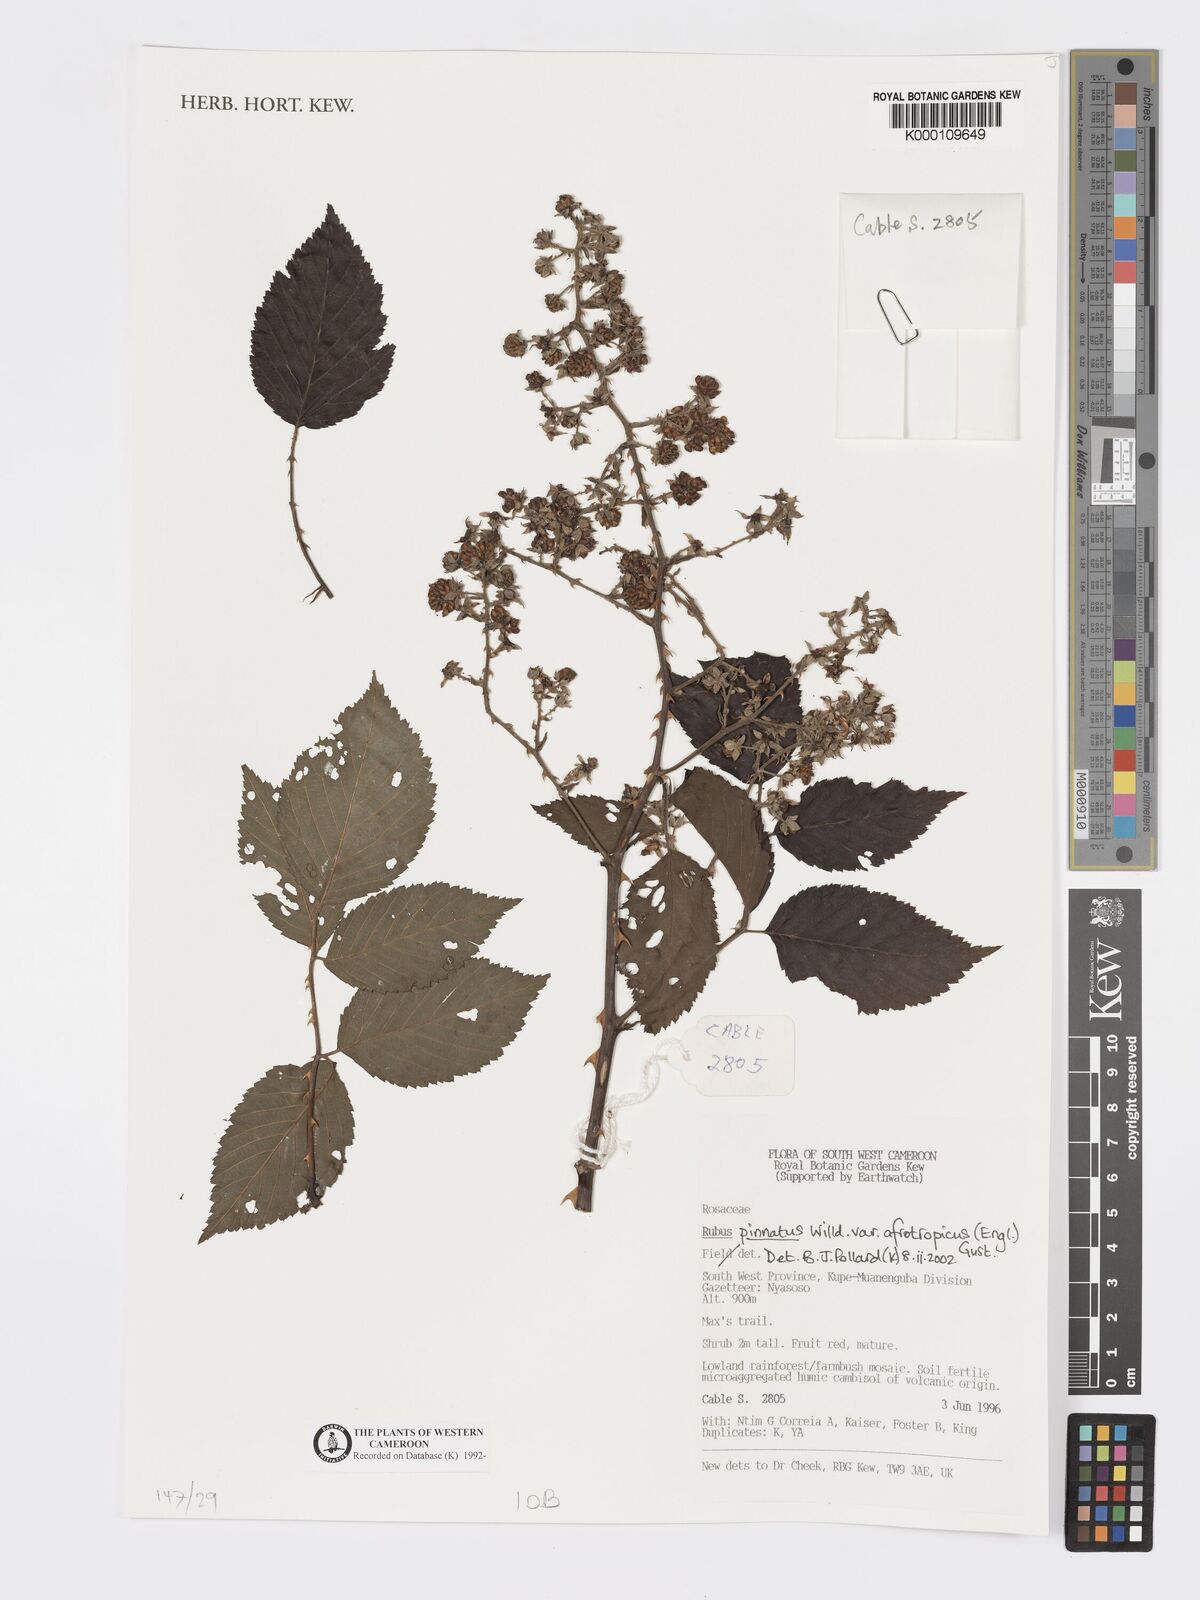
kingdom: Plantae
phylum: Tracheophyta
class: Magnoliopsida
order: Rosales
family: Rosaceae
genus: Rubus
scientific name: Rubus pinnatus
